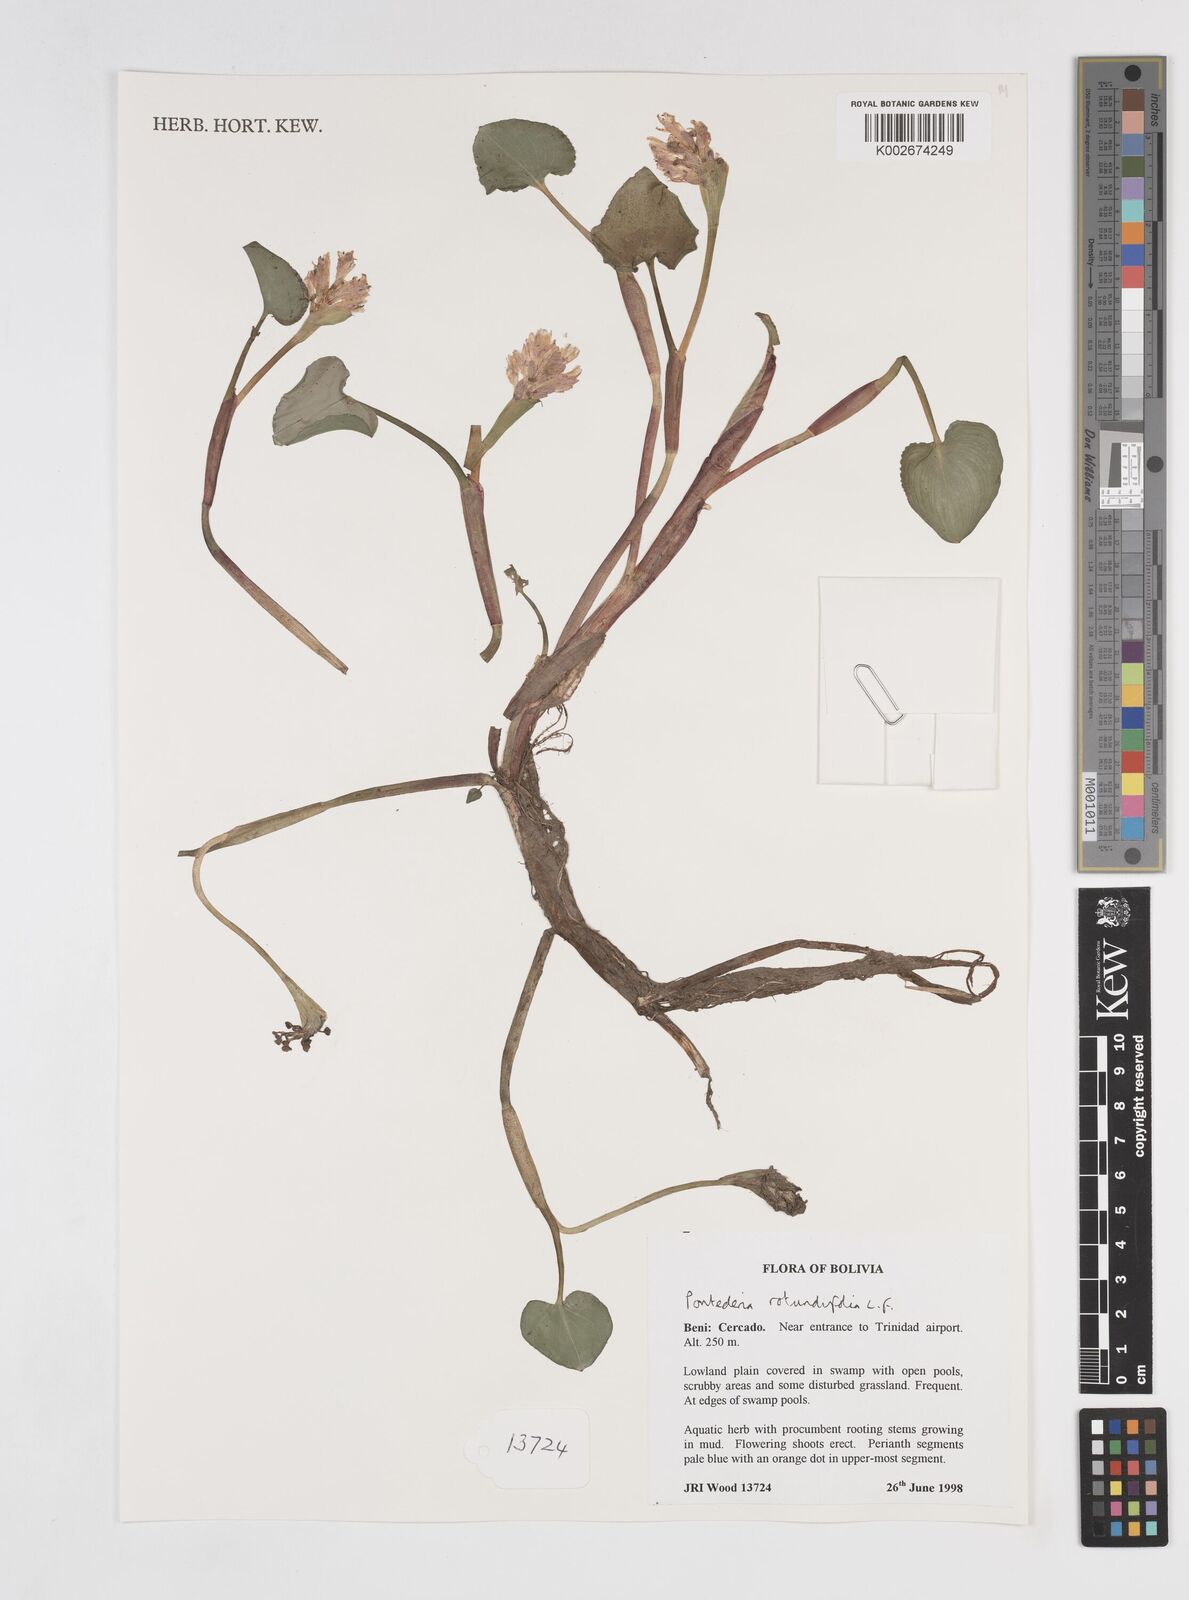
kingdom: Plantae
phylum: Tracheophyta
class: Liliopsida
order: Commelinales
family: Pontederiaceae
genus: Pontederia
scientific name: Pontederia rotundifolia
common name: Tropical pickerel-weed
